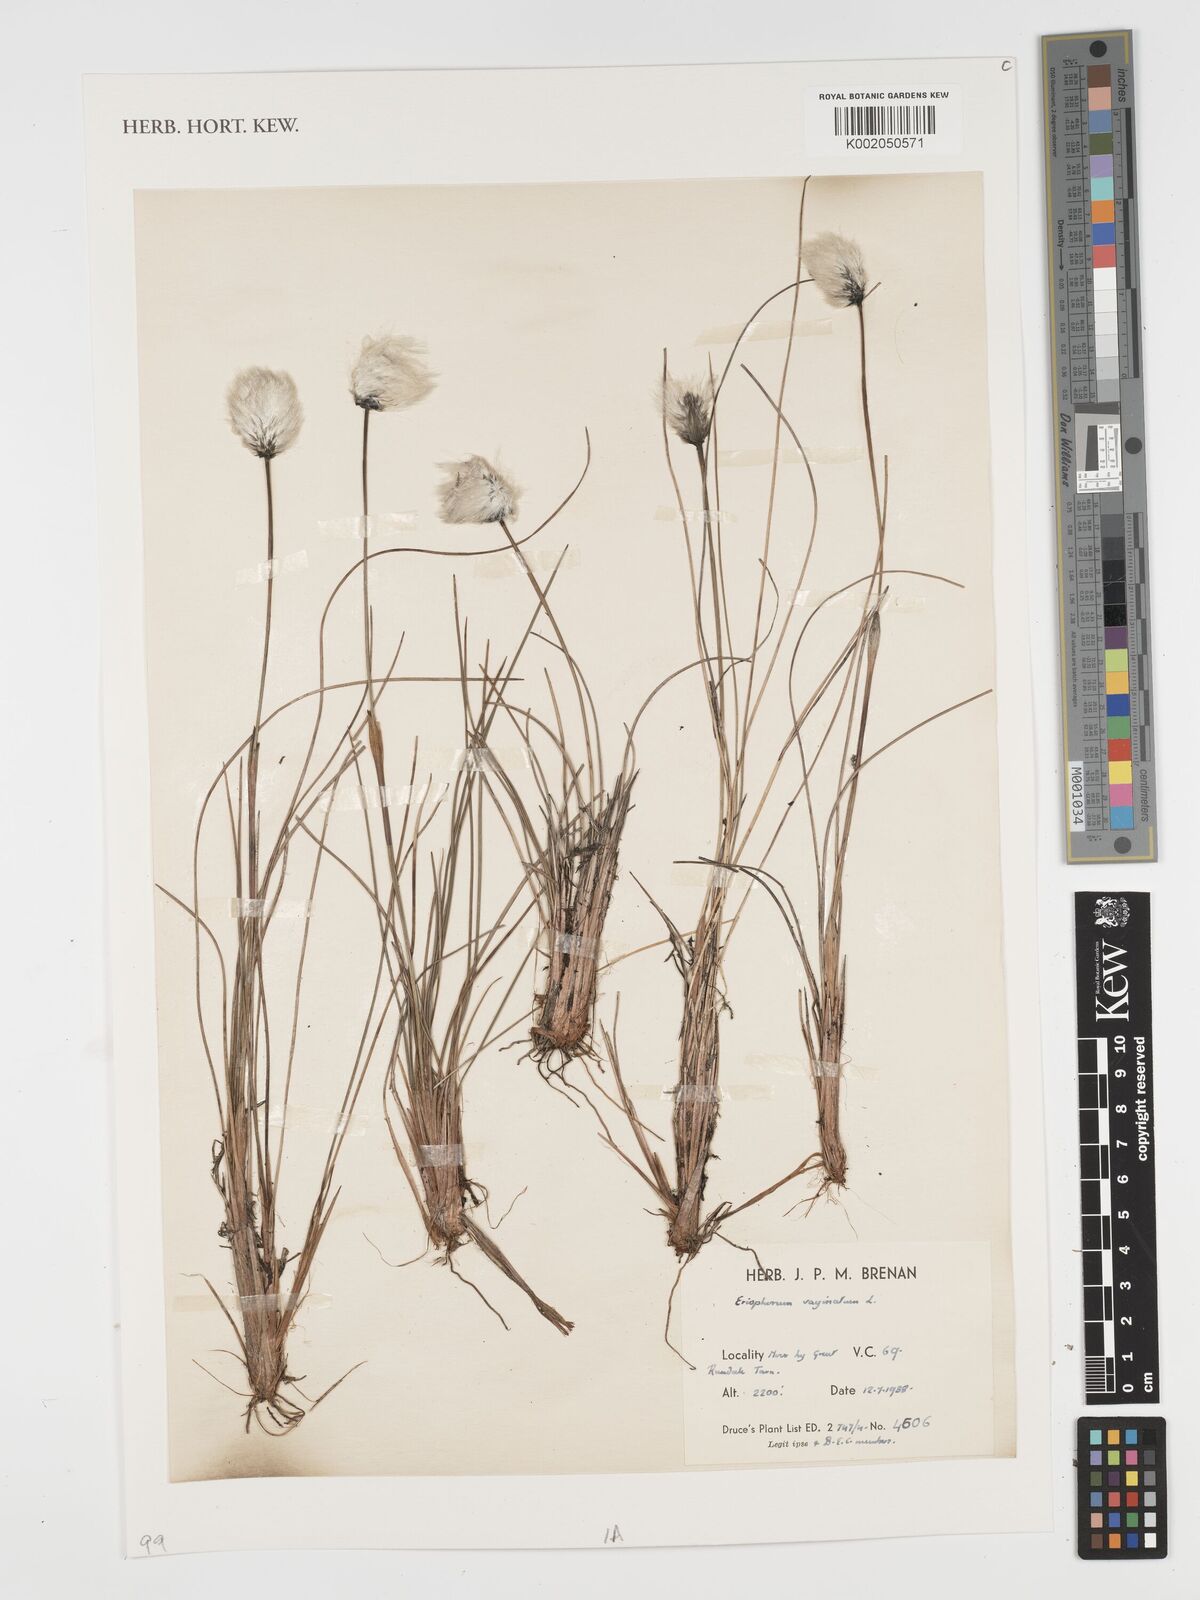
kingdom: Plantae
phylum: Tracheophyta
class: Liliopsida
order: Poales
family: Cyperaceae
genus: Eriophorum
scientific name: Eriophorum vaginatum
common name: Hare's-tail cottongrass
